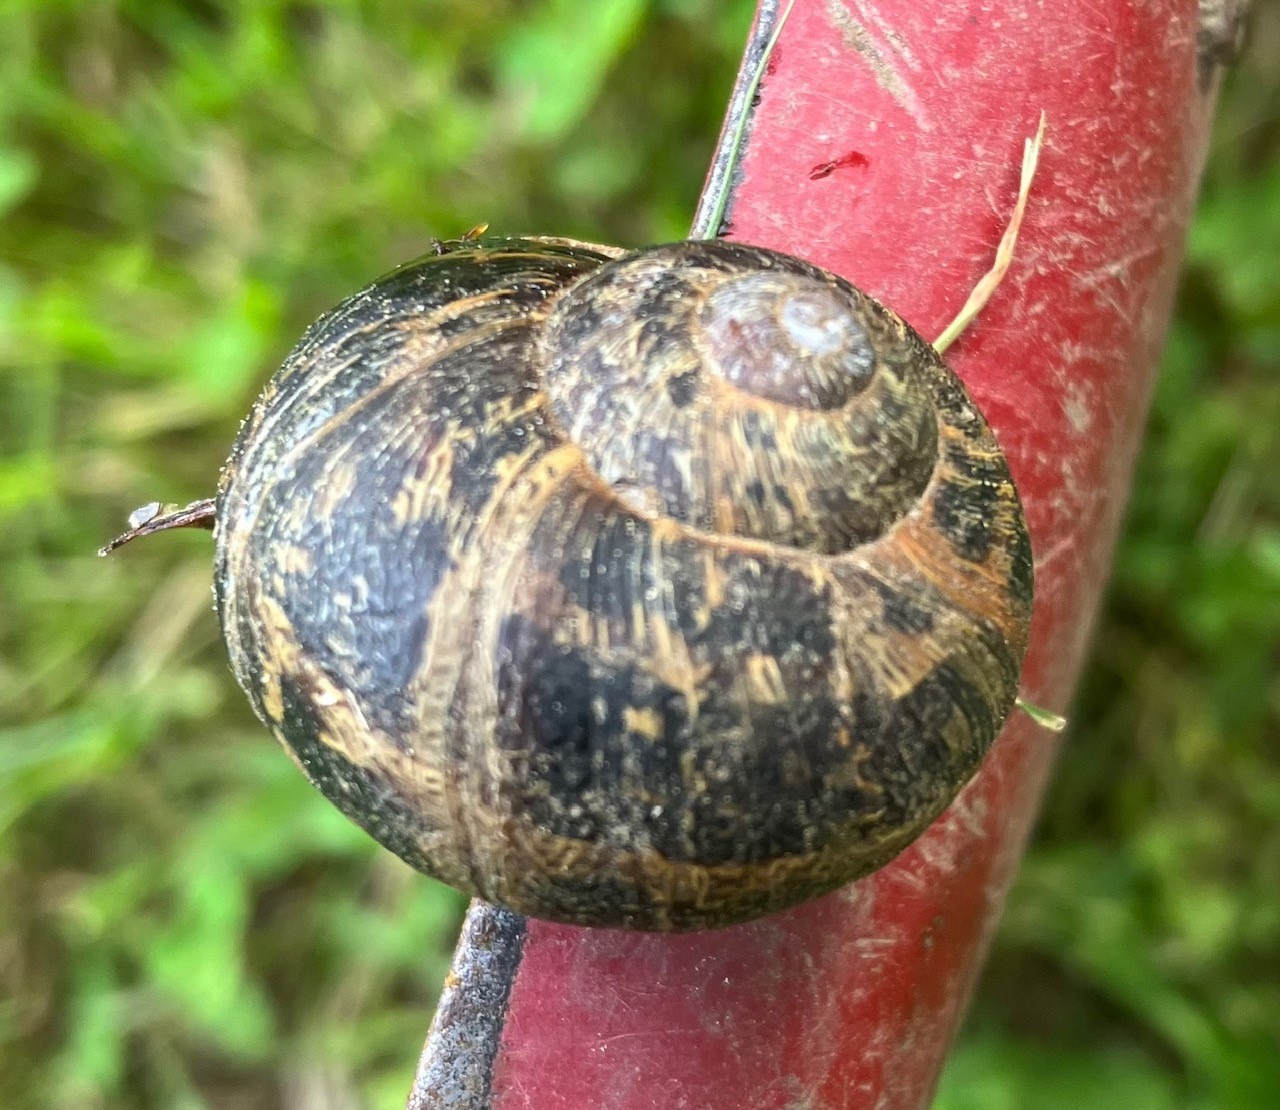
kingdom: Animalia
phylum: Mollusca
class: Gastropoda
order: Stylommatophora
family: Helicidae
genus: Cornu
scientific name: Cornu aspersum
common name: Plettet voldsnegl
